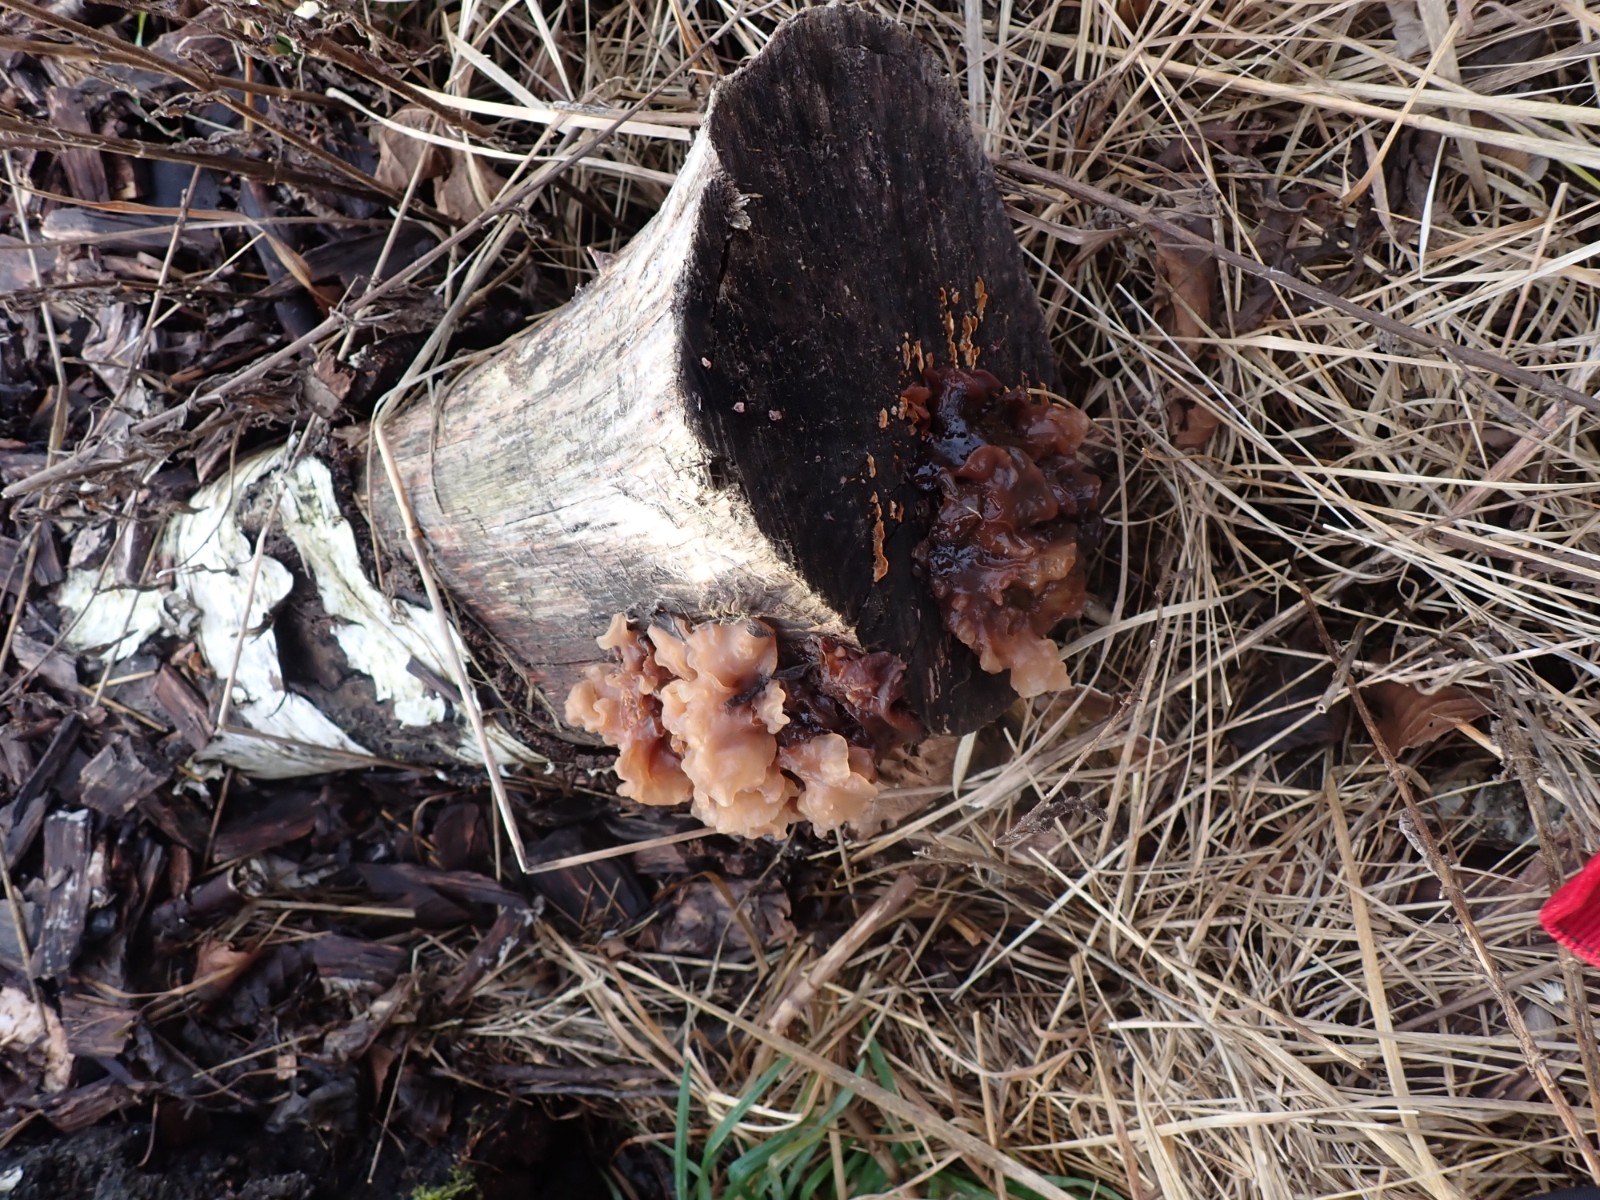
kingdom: Fungi
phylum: Basidiomycota
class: Tremellomycetes
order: Tremellales
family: Tremellaceae
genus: Phaeotremella
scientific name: Phaeotremella frondosa
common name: kæmpe-bævresvamp
